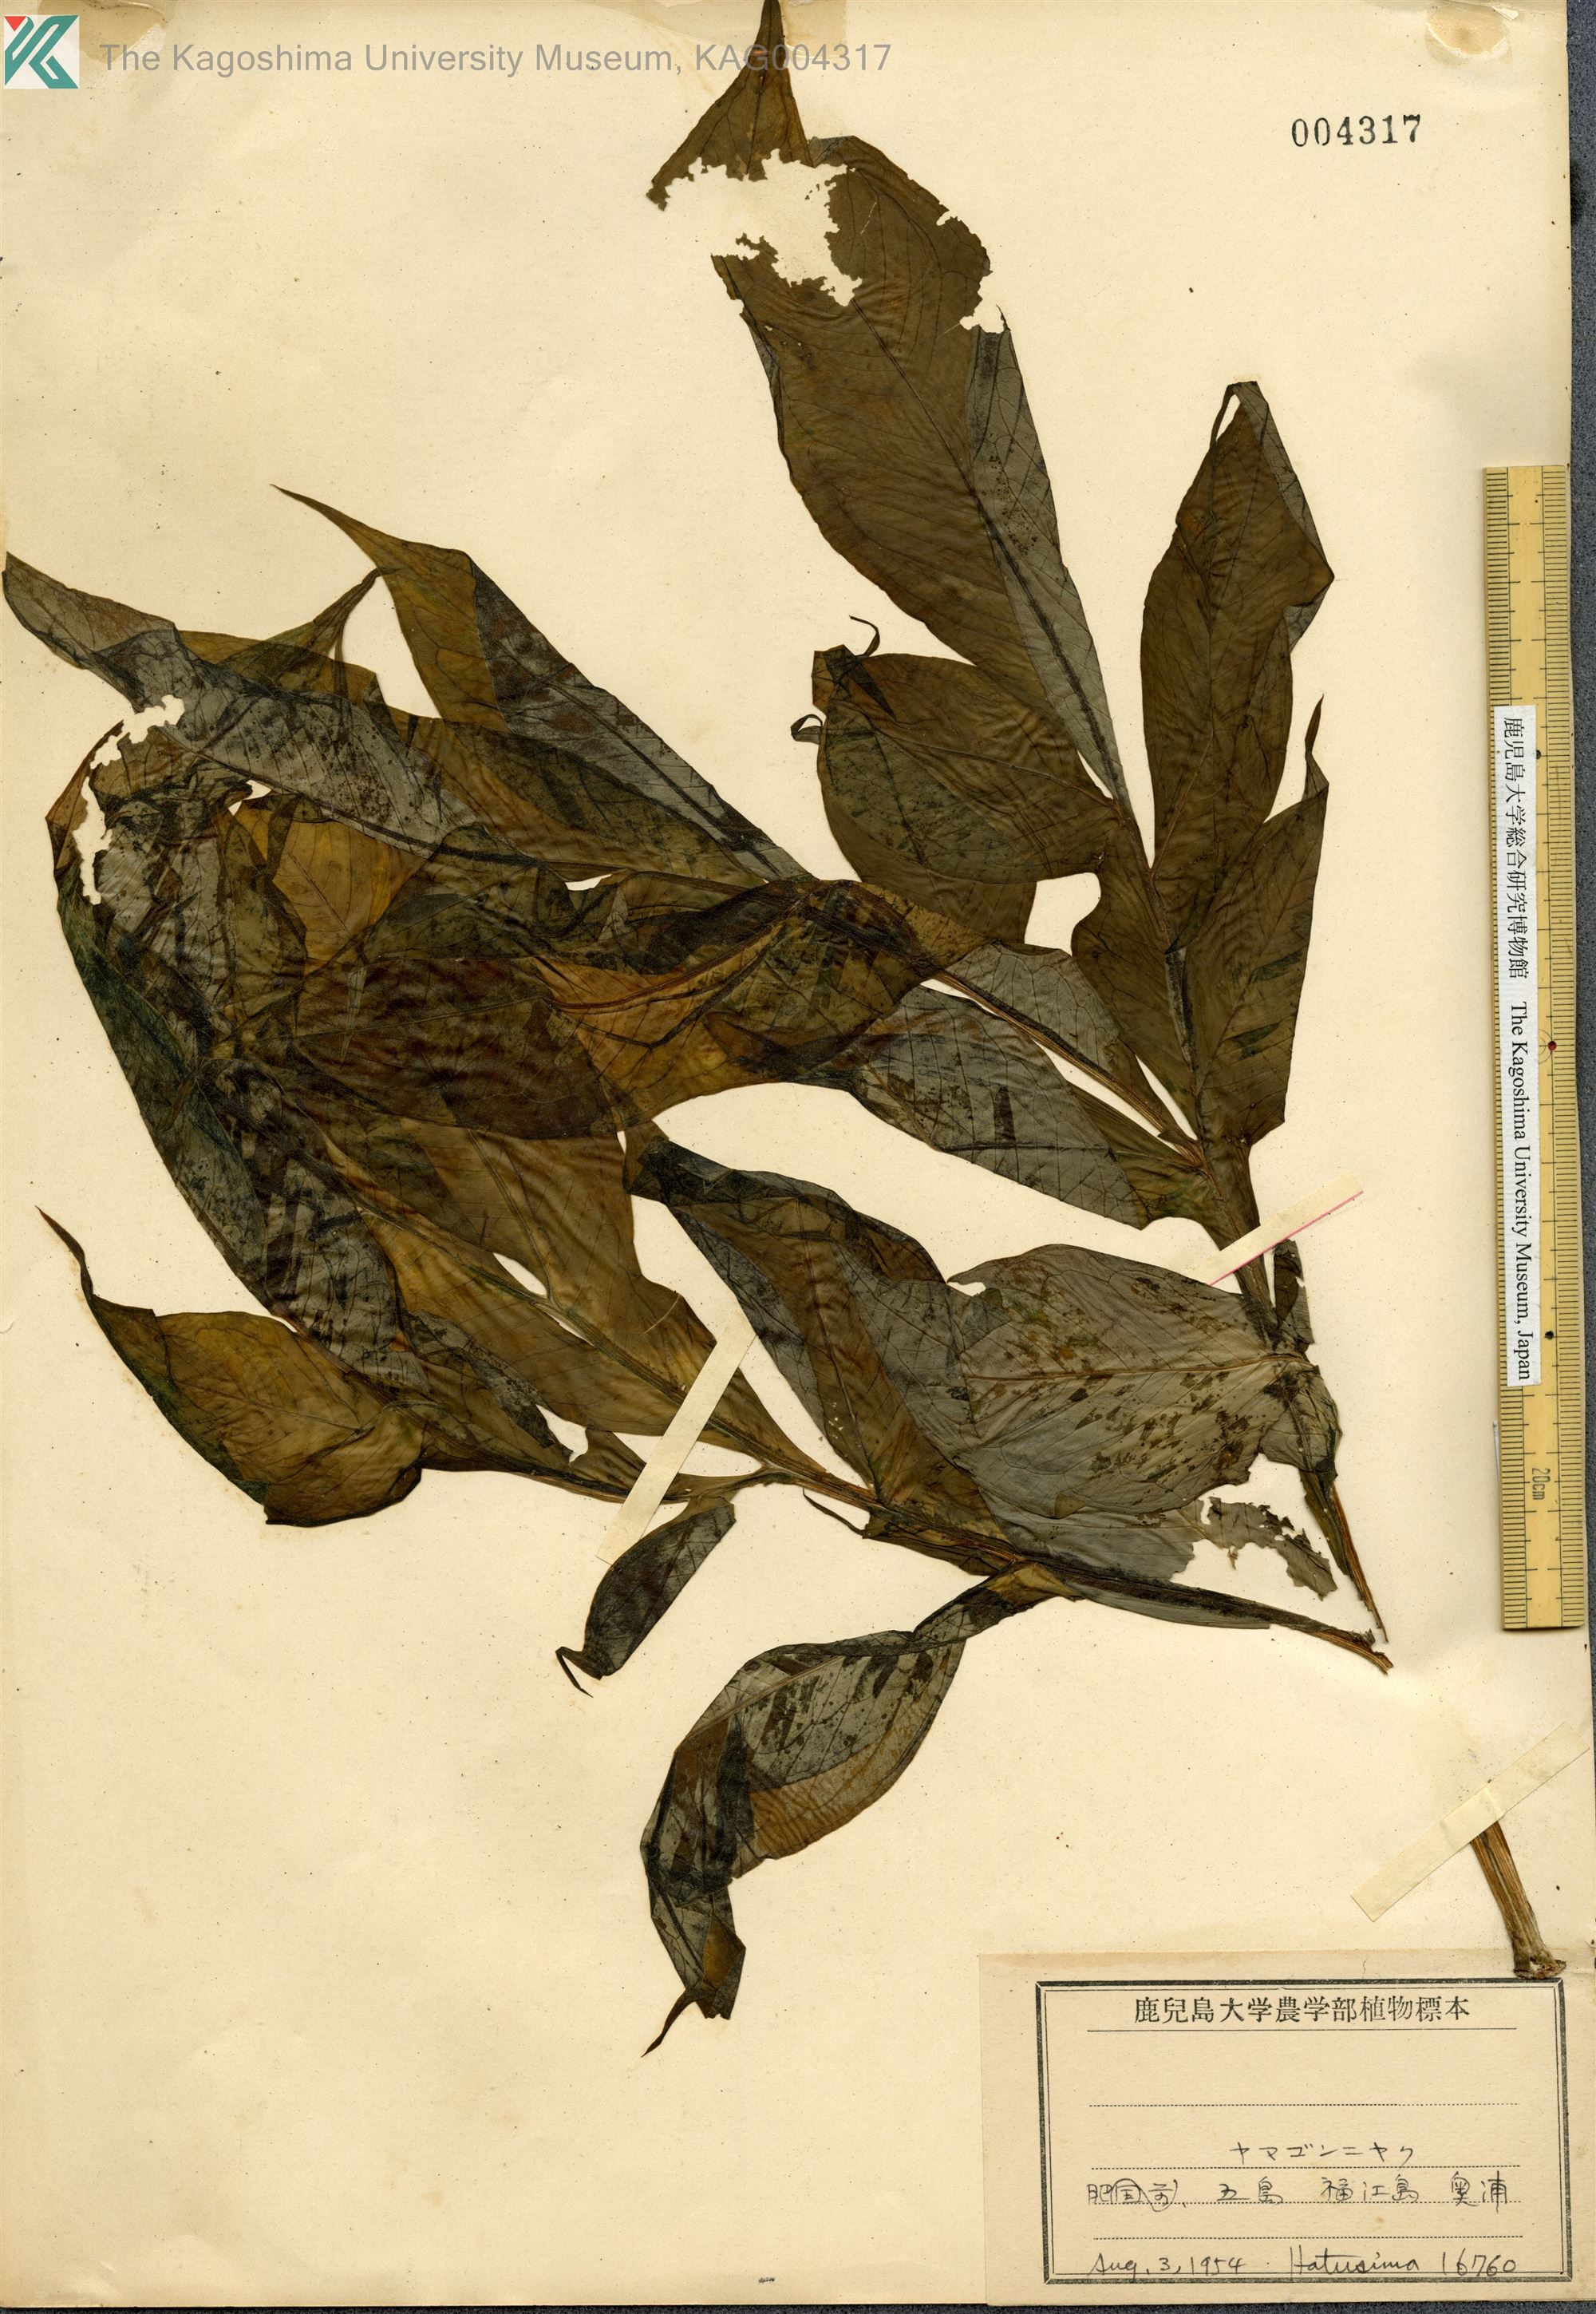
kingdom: Plantae
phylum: Tracheophyta
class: Liliopsida
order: Alismatales
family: Araceae
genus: Amorphophallus
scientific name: Amorphophallus kiusianus
